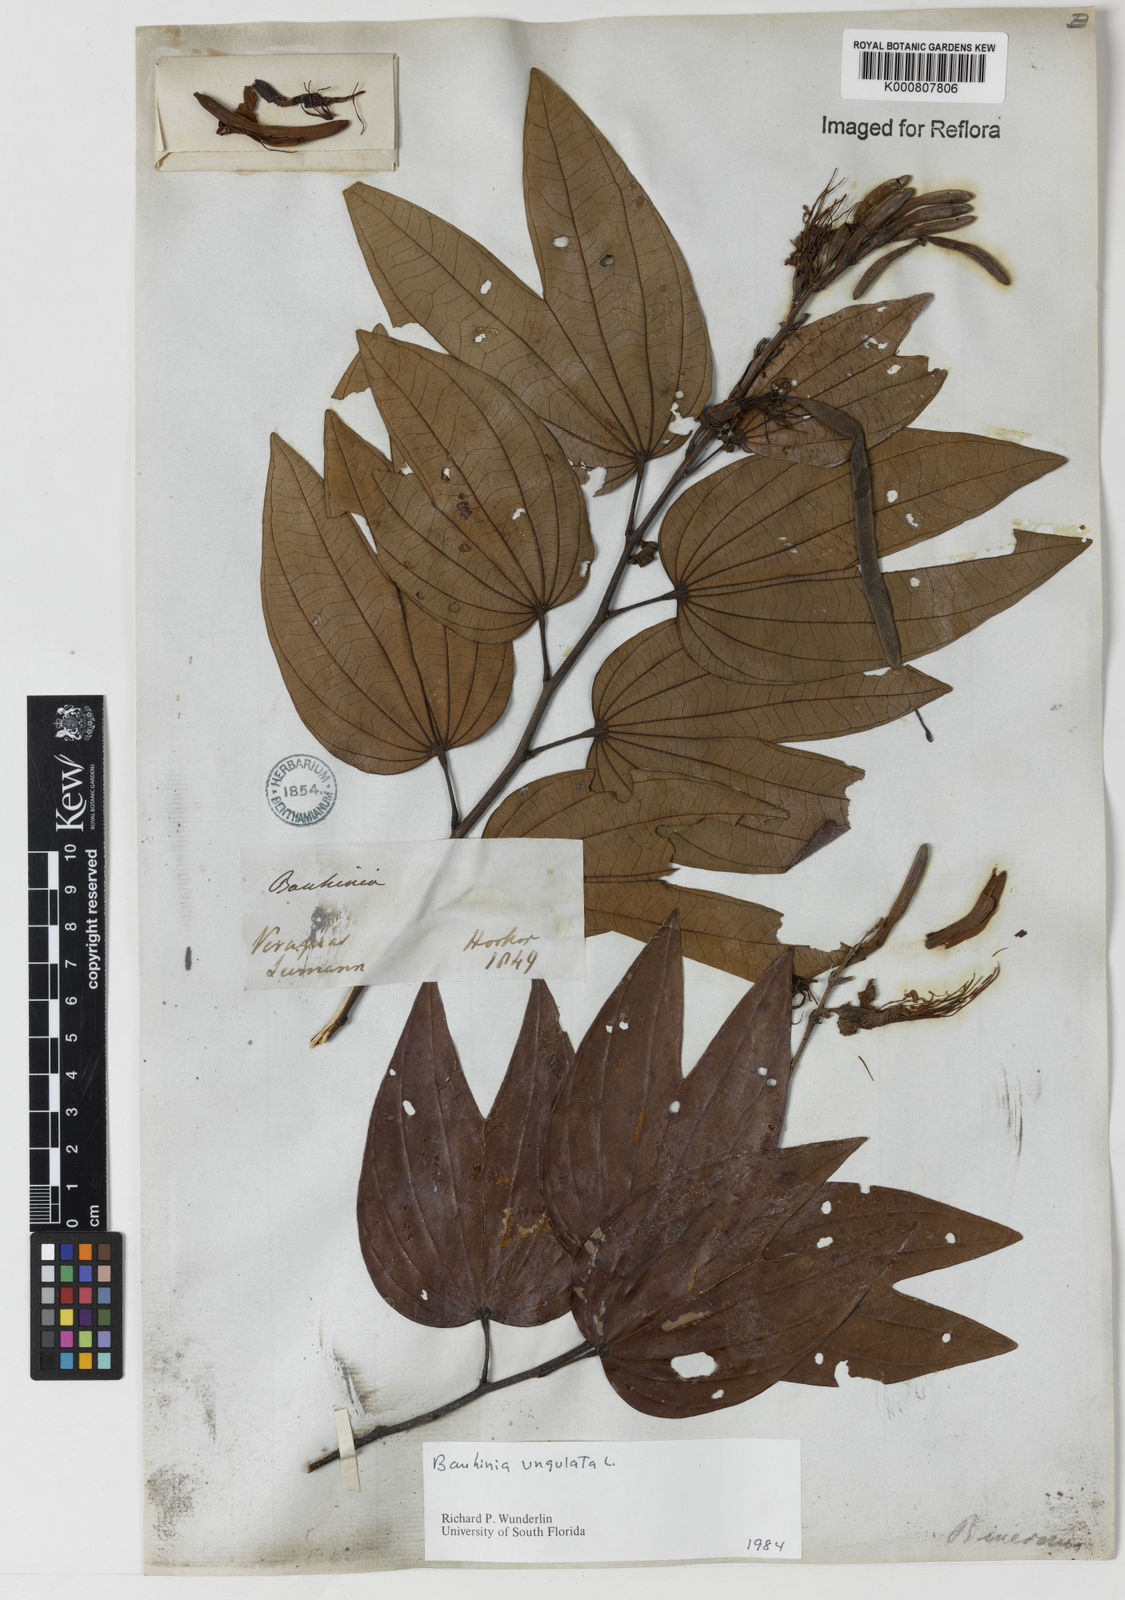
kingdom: Plantae
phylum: Tracheophyta
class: Magnoliopsida
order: Fabales
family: Fabaceae
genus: Bauhinia
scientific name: Bauhinia ungulata
